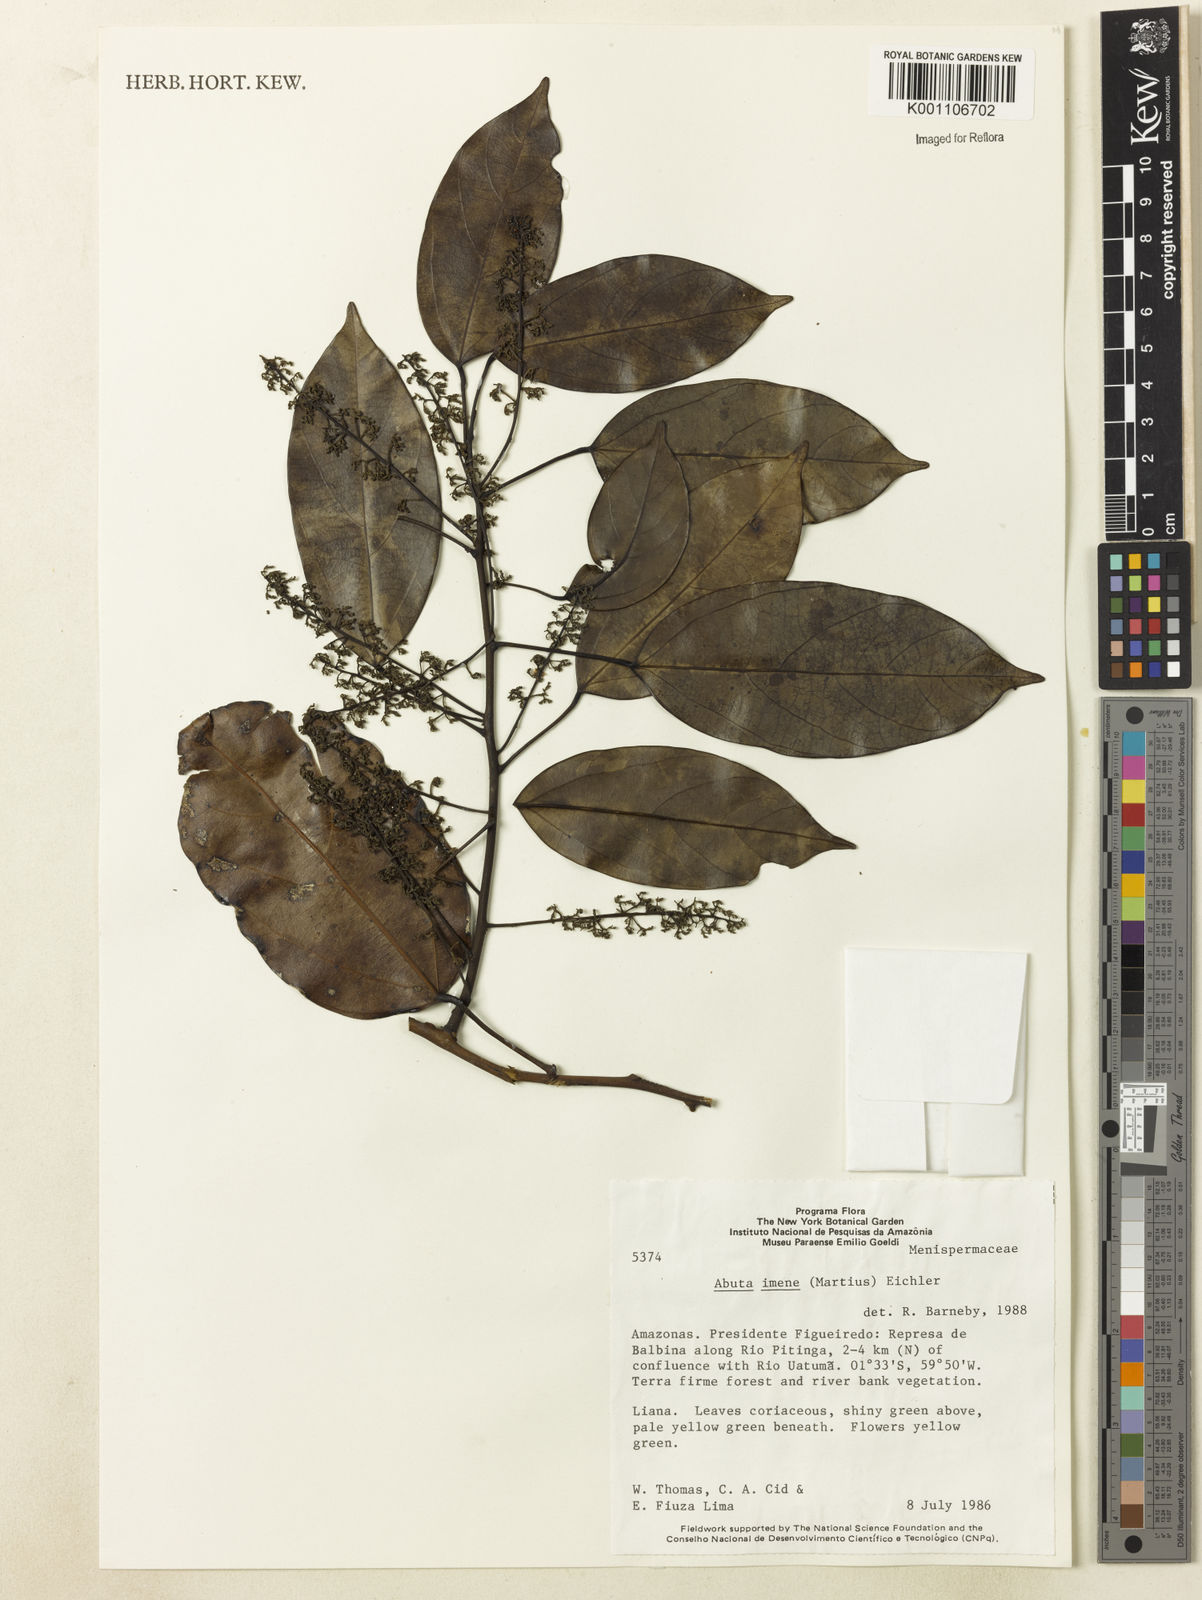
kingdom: Plantae
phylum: Tracheophyta
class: Magnoliopsida
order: Ranunculales
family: Menispermaceae
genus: Abuta
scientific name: Abuta imene
